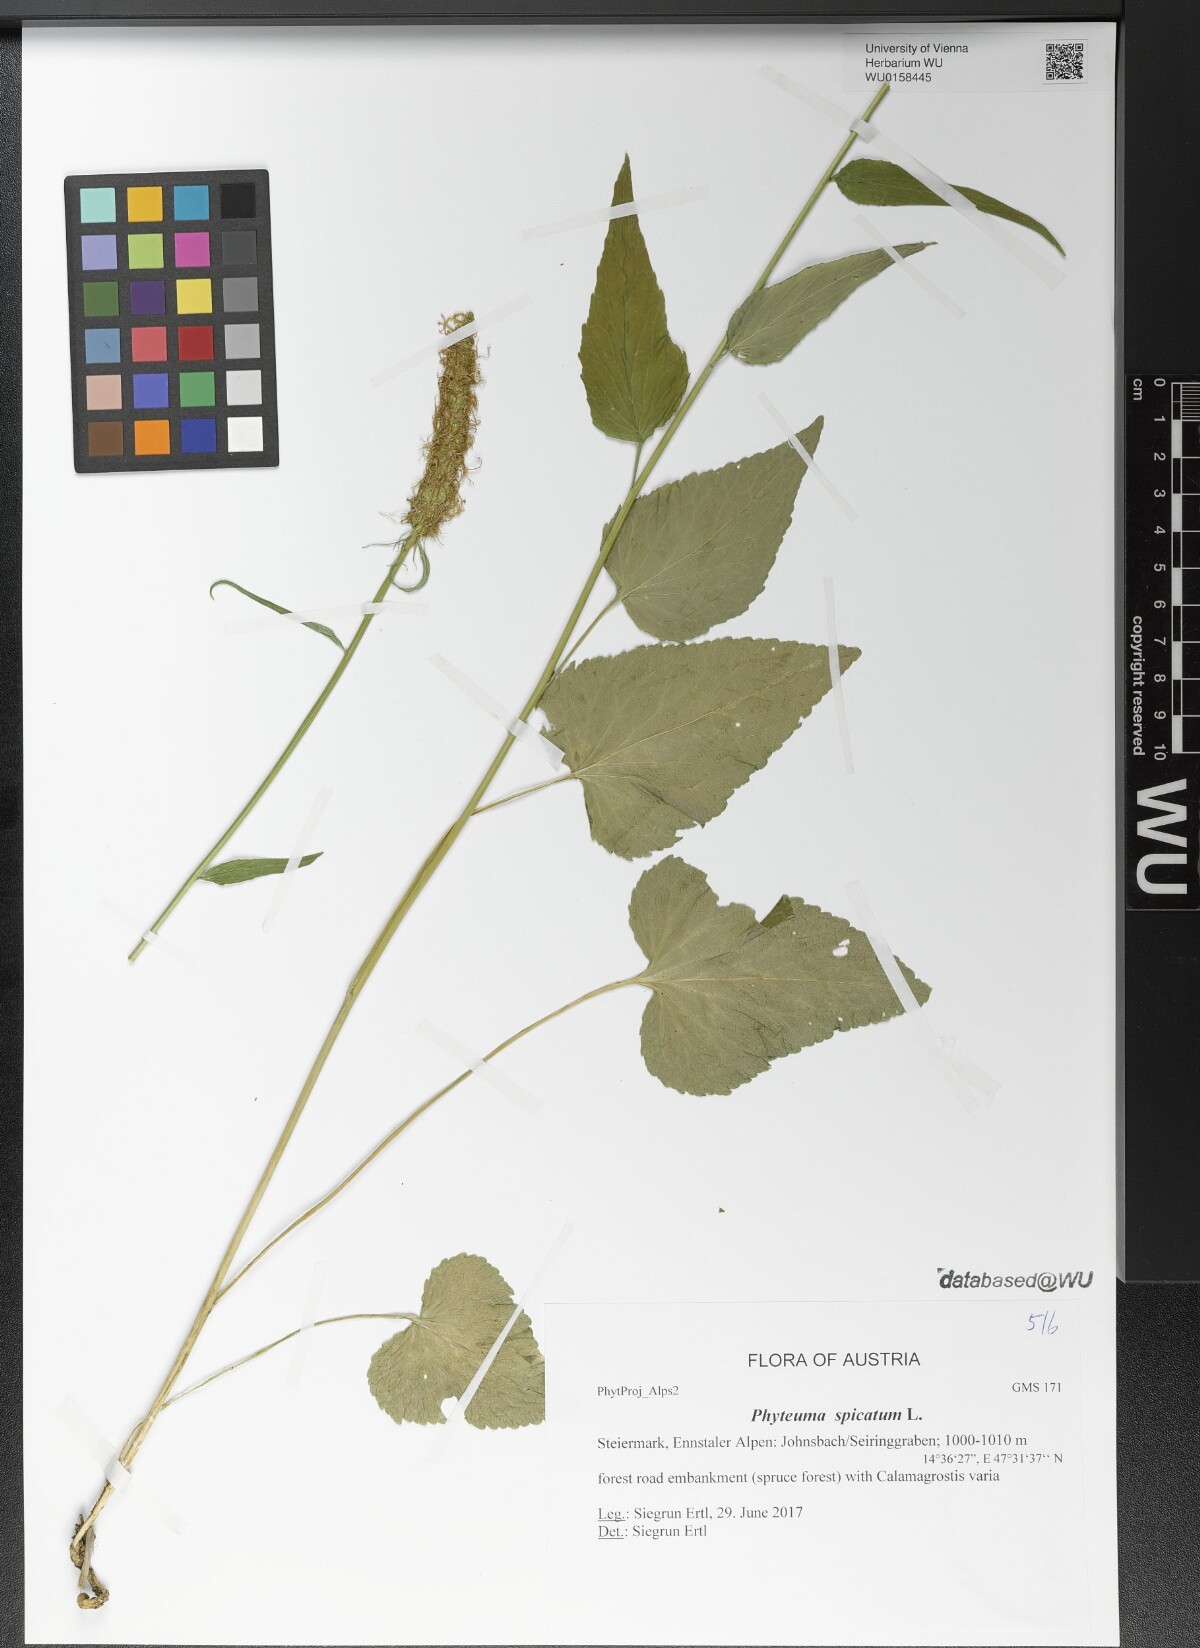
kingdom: Plantae
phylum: Tracheophyta
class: Magnoliopsida
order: Asterales
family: Campanulaceae
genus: Phyteuma
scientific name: Phyteuma spicatum
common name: Spiked rampion
